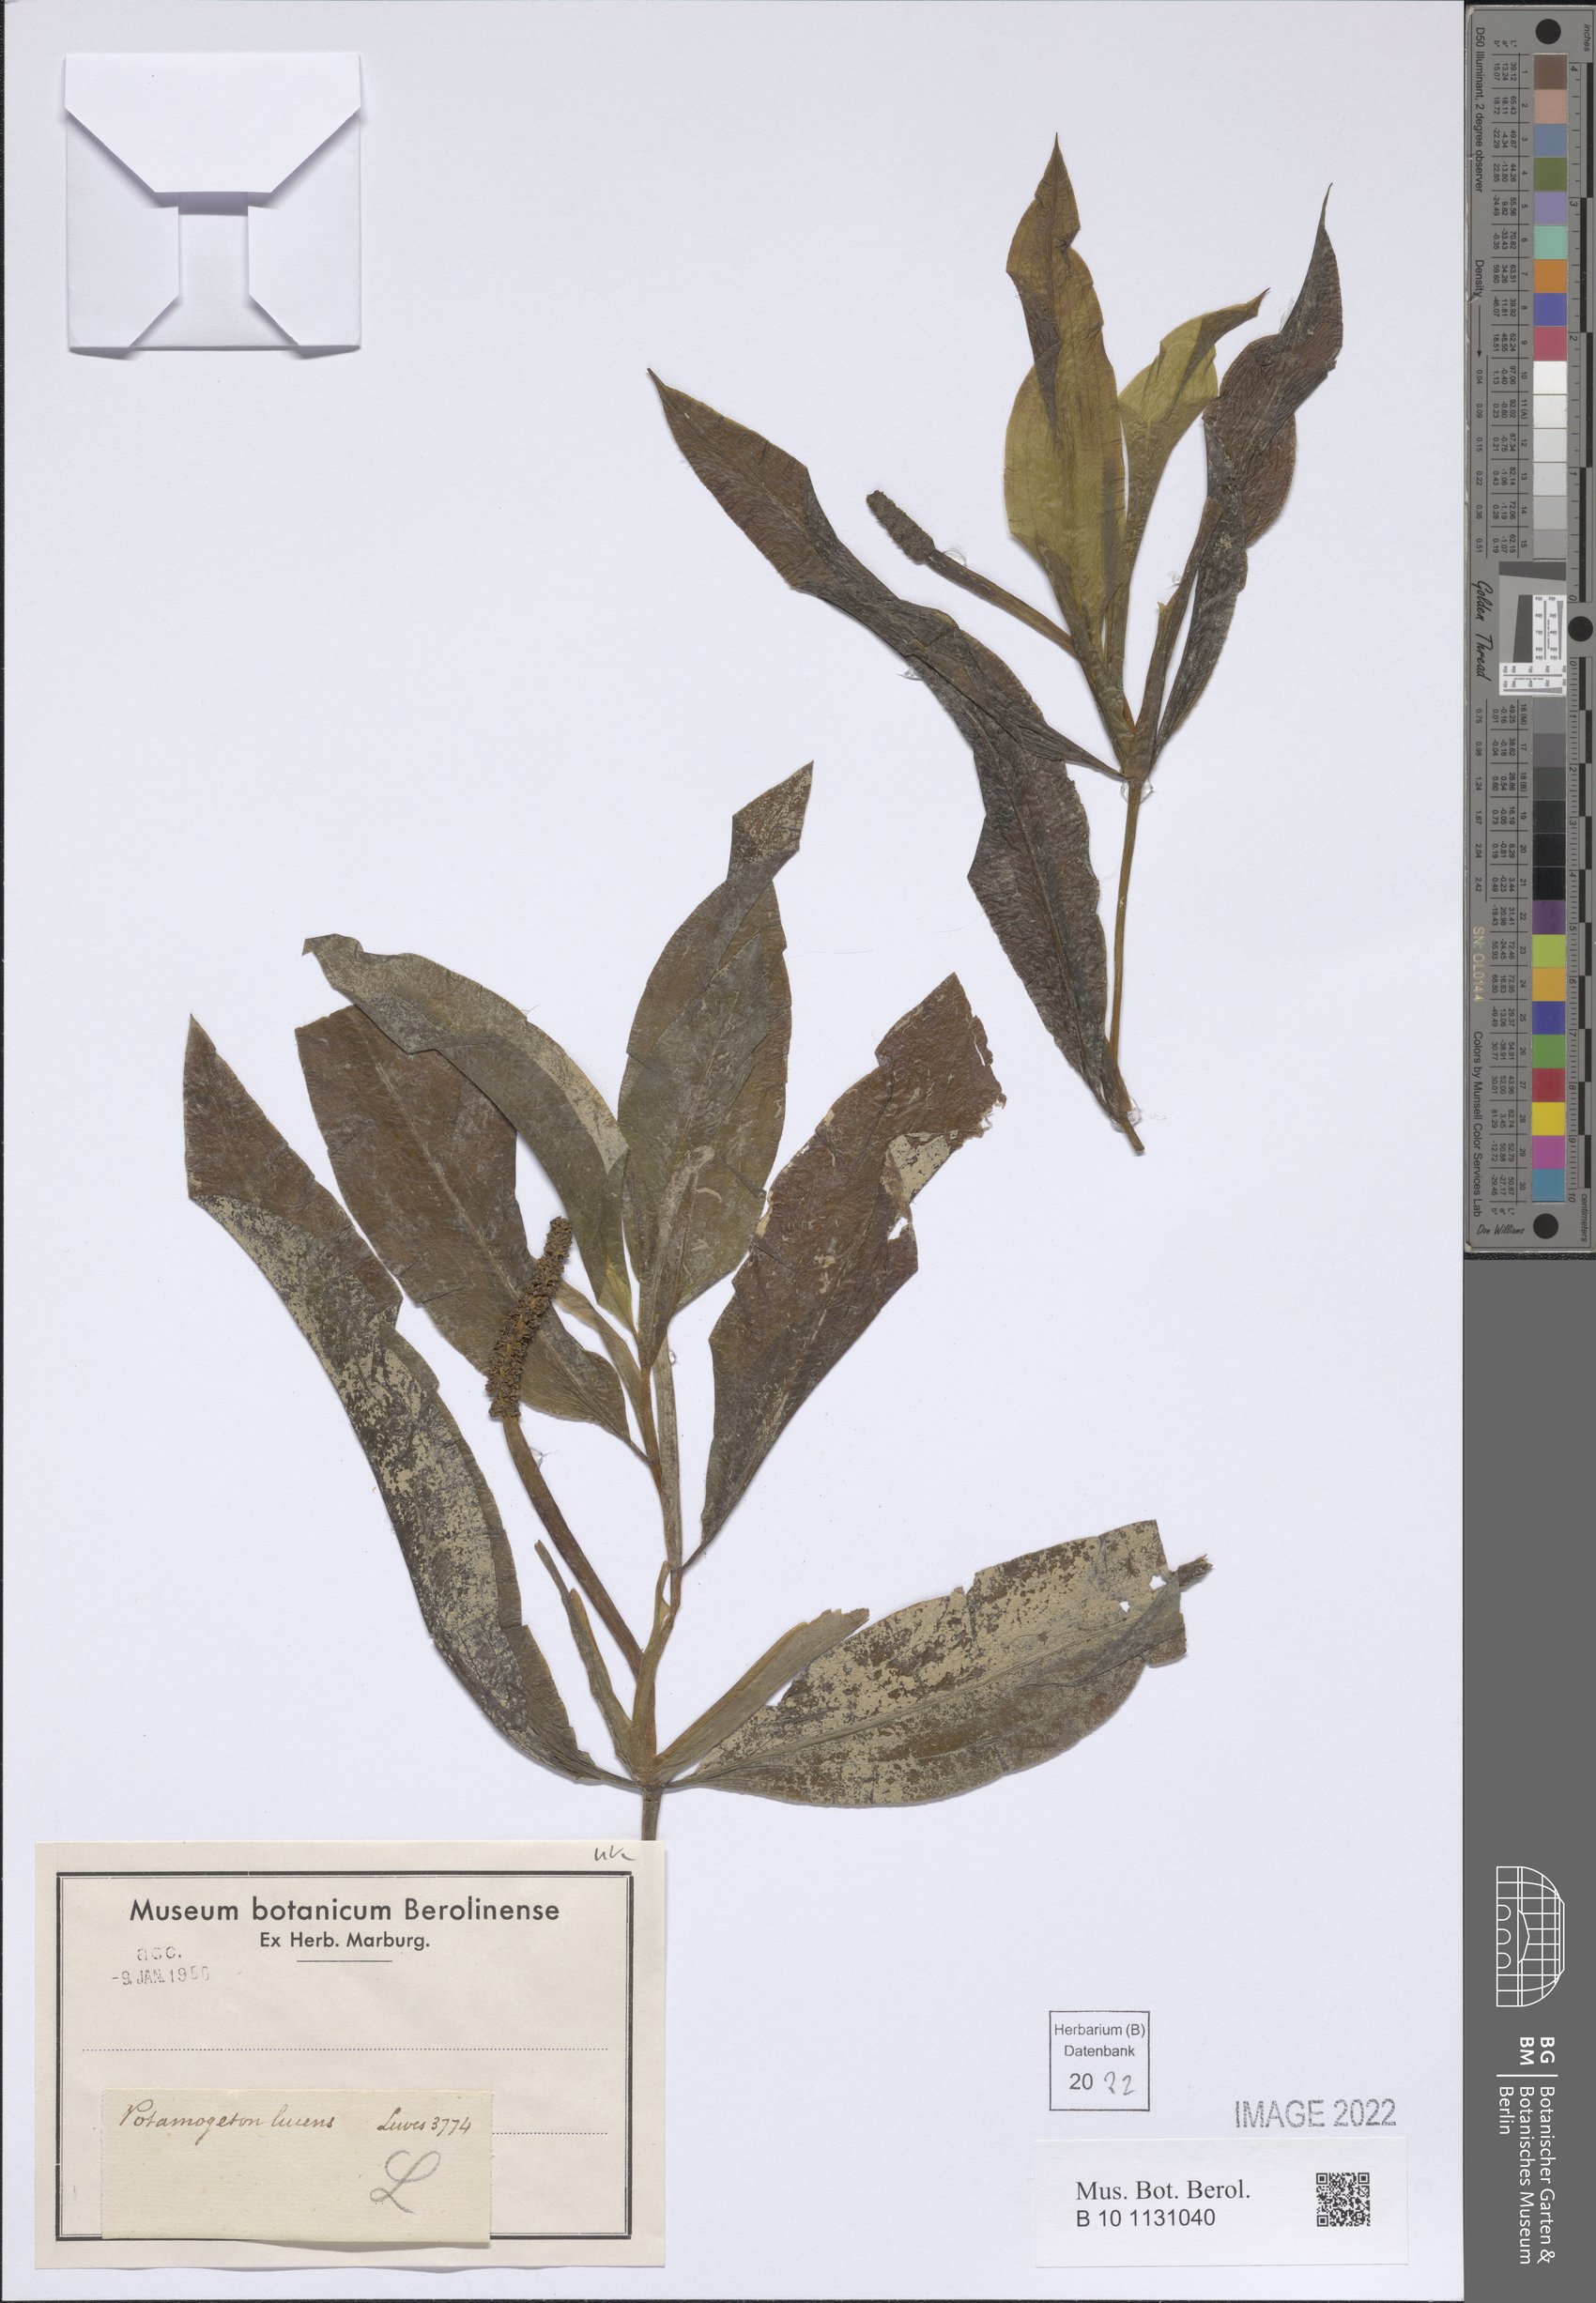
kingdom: Plantae
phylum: Tracheophyta
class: Liliopsida
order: Alismatales
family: Potamogetonaceae
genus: Potamogeton
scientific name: Potamogeton lucens
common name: Shining pondweed
